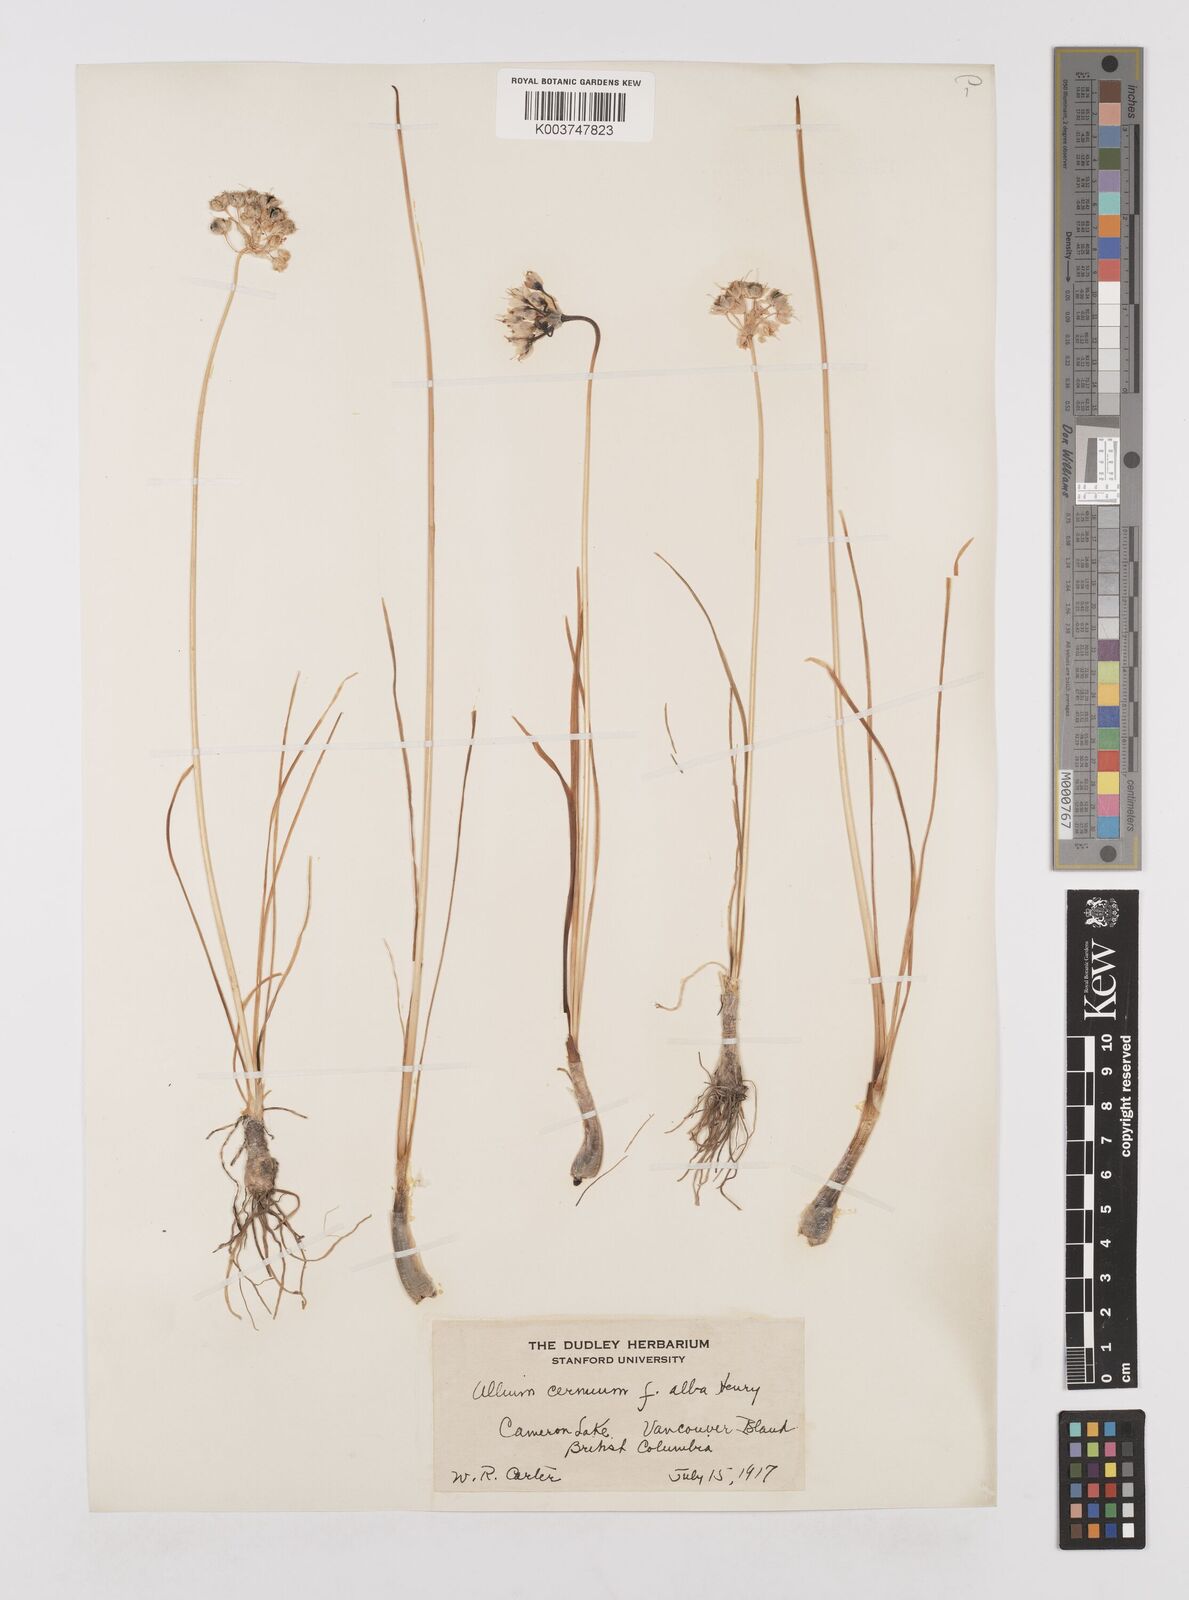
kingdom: Plantae
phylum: Tracheophyta
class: Liliopsida
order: Asparagales
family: Amaryllidaceae
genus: Allium
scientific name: Allium cernuum
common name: Nodding onion
